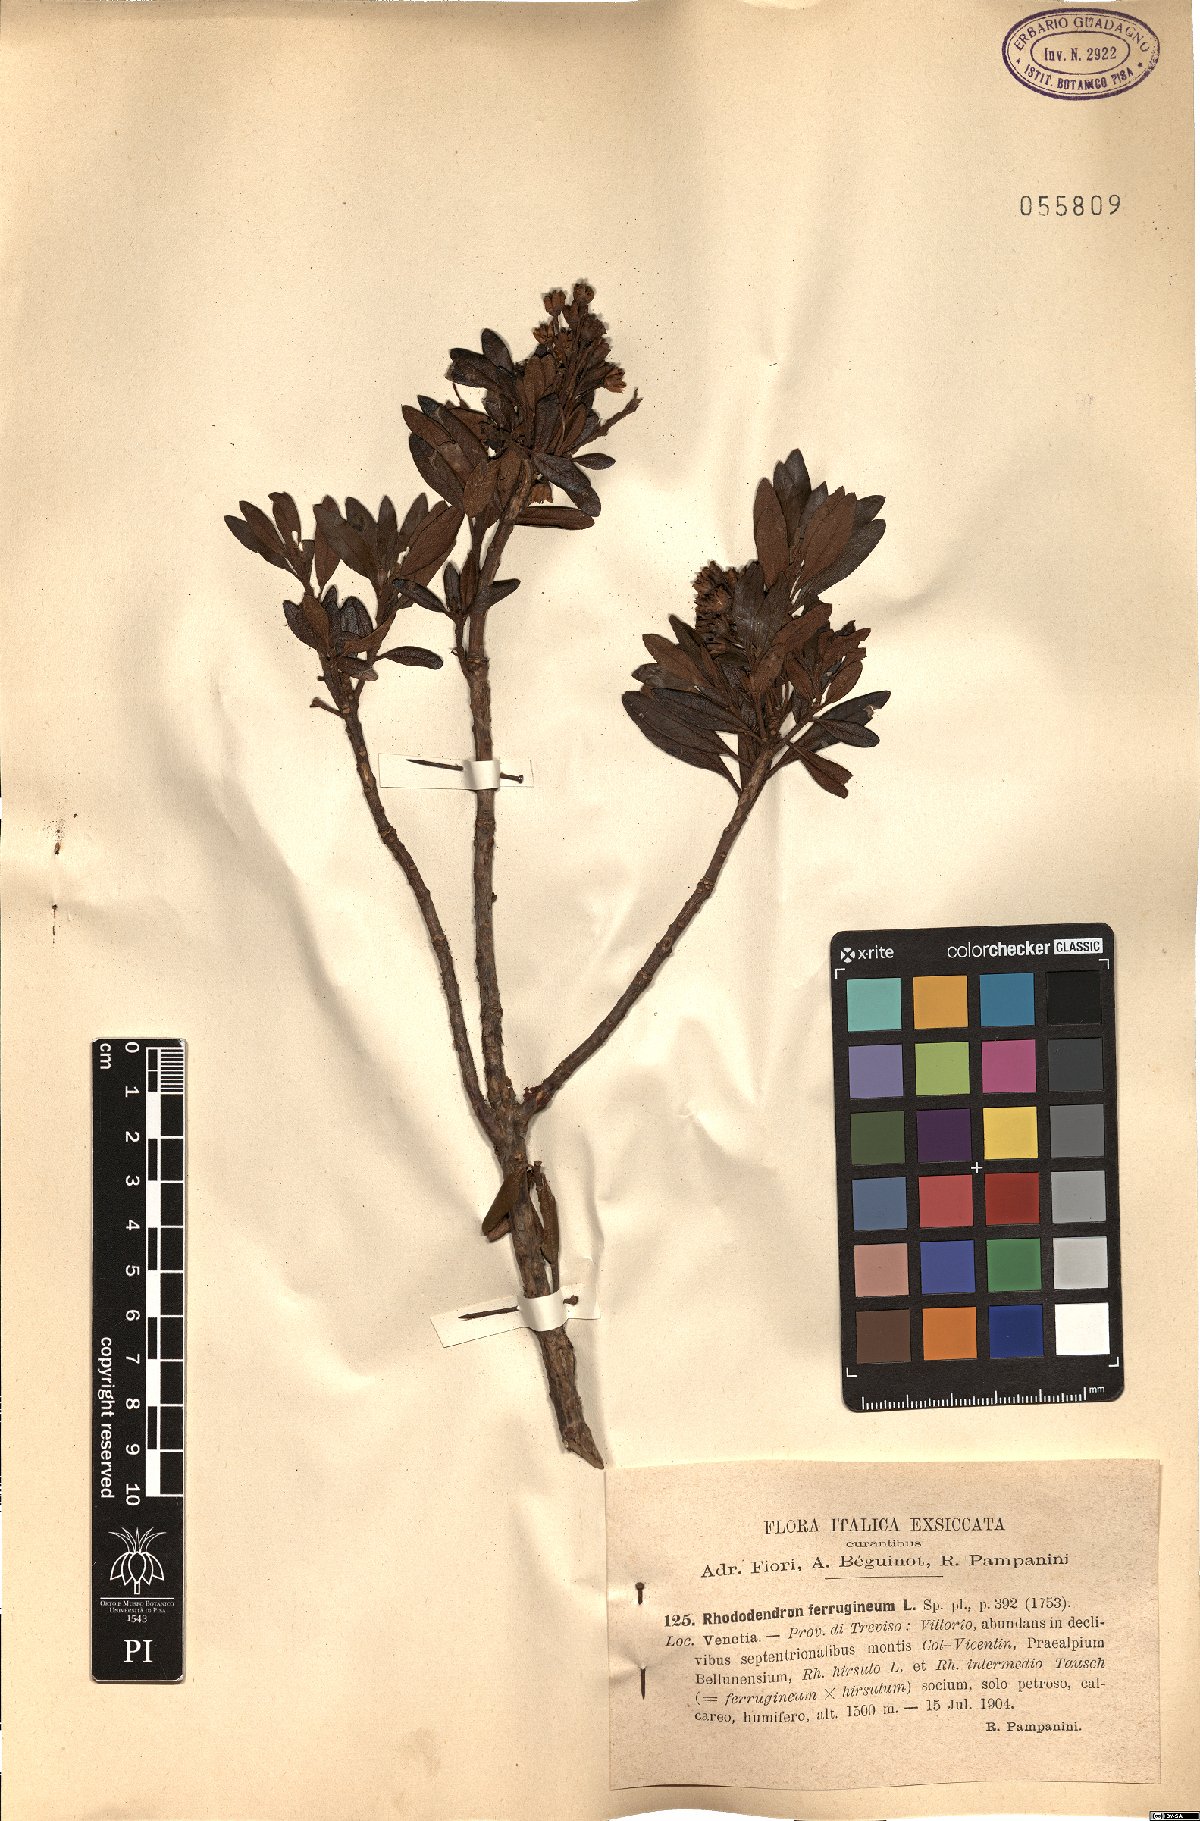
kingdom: Plantae
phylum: Tracheophyta
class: Magnoliopsida
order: Ericales
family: Ericaceae
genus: Rhododendron
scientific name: Rhododendron ferrugineum
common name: Alpenrose
